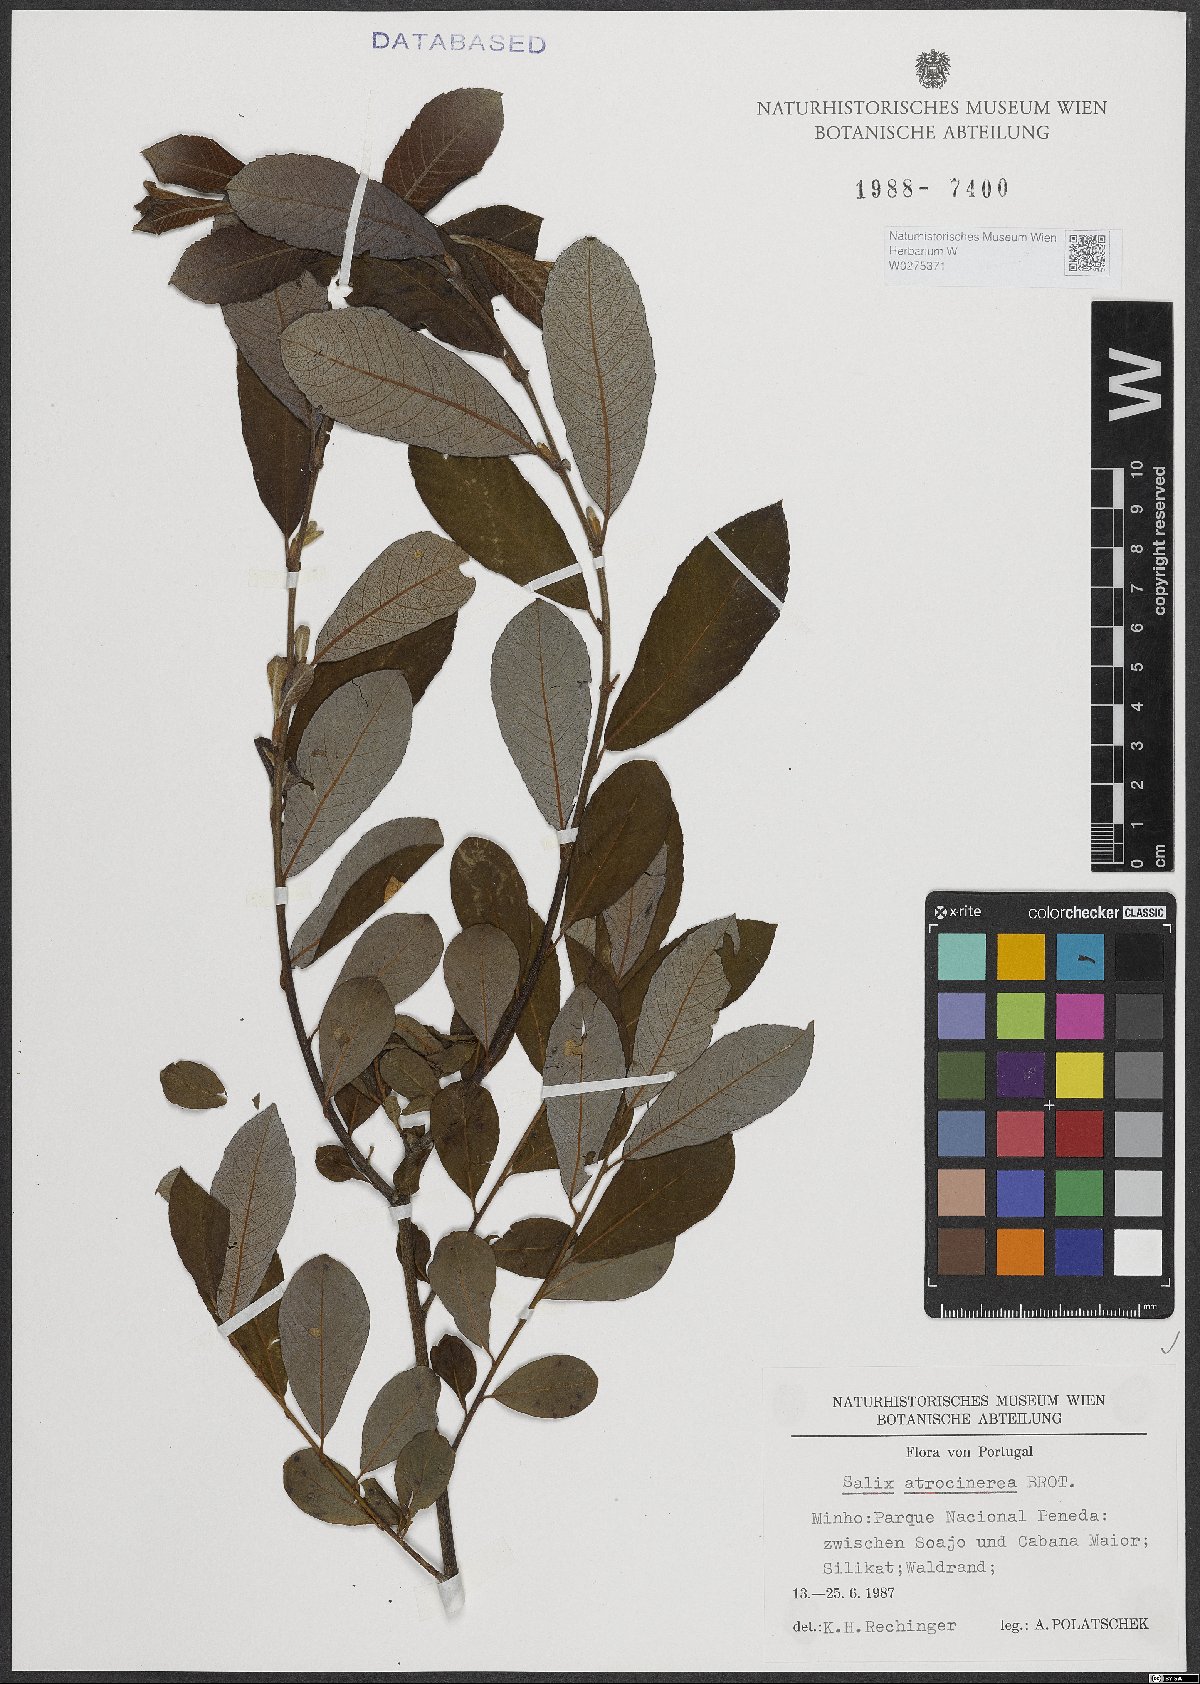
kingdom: Plantae
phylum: Tracheophyta
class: Magnoliopsida
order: Malpighiales
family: Salicaceae
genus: Salix
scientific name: Salix atrocinerea
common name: Rusty willow
